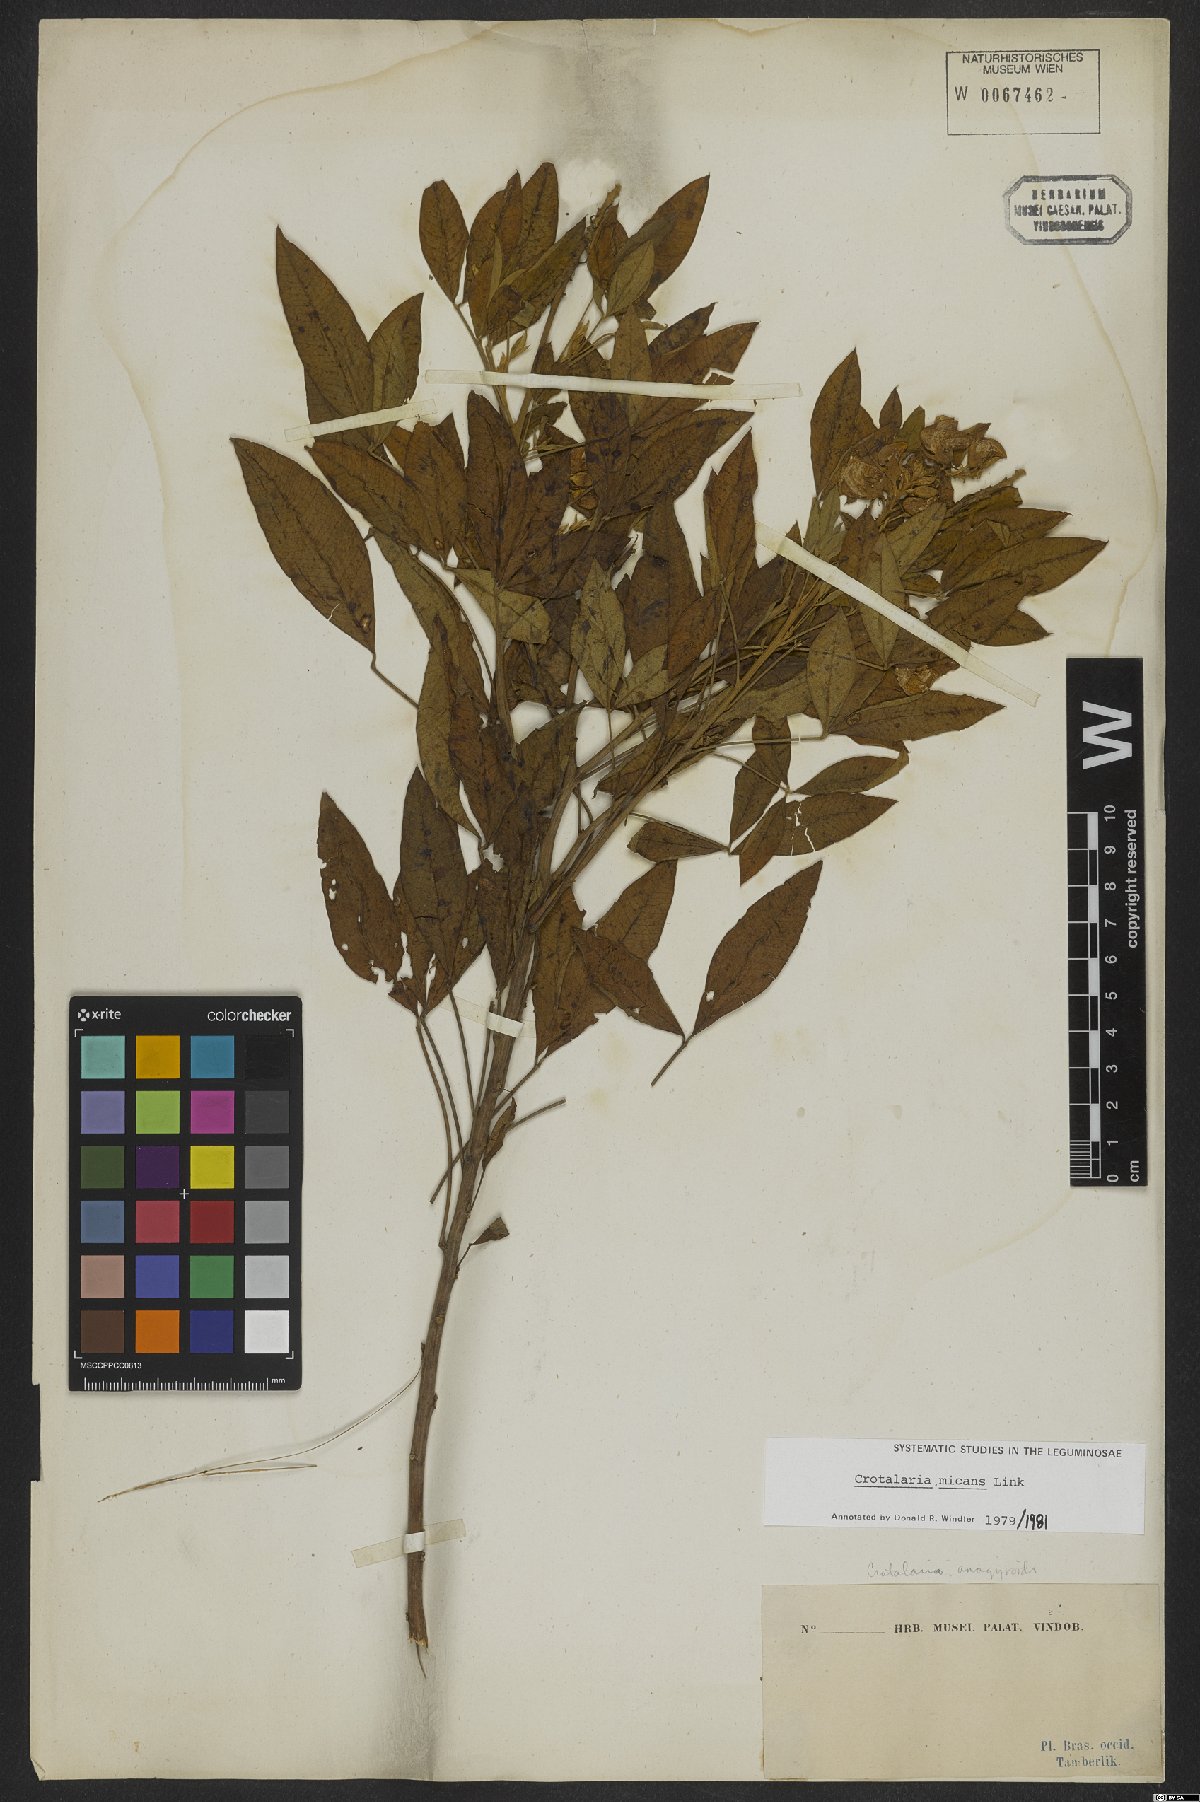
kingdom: Plantae
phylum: Tracheophyta
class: Magnoliopsida
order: Fabales
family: Fabaceae
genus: Crotalaria
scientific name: Crotalaria micans
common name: Caracas rattlebox
